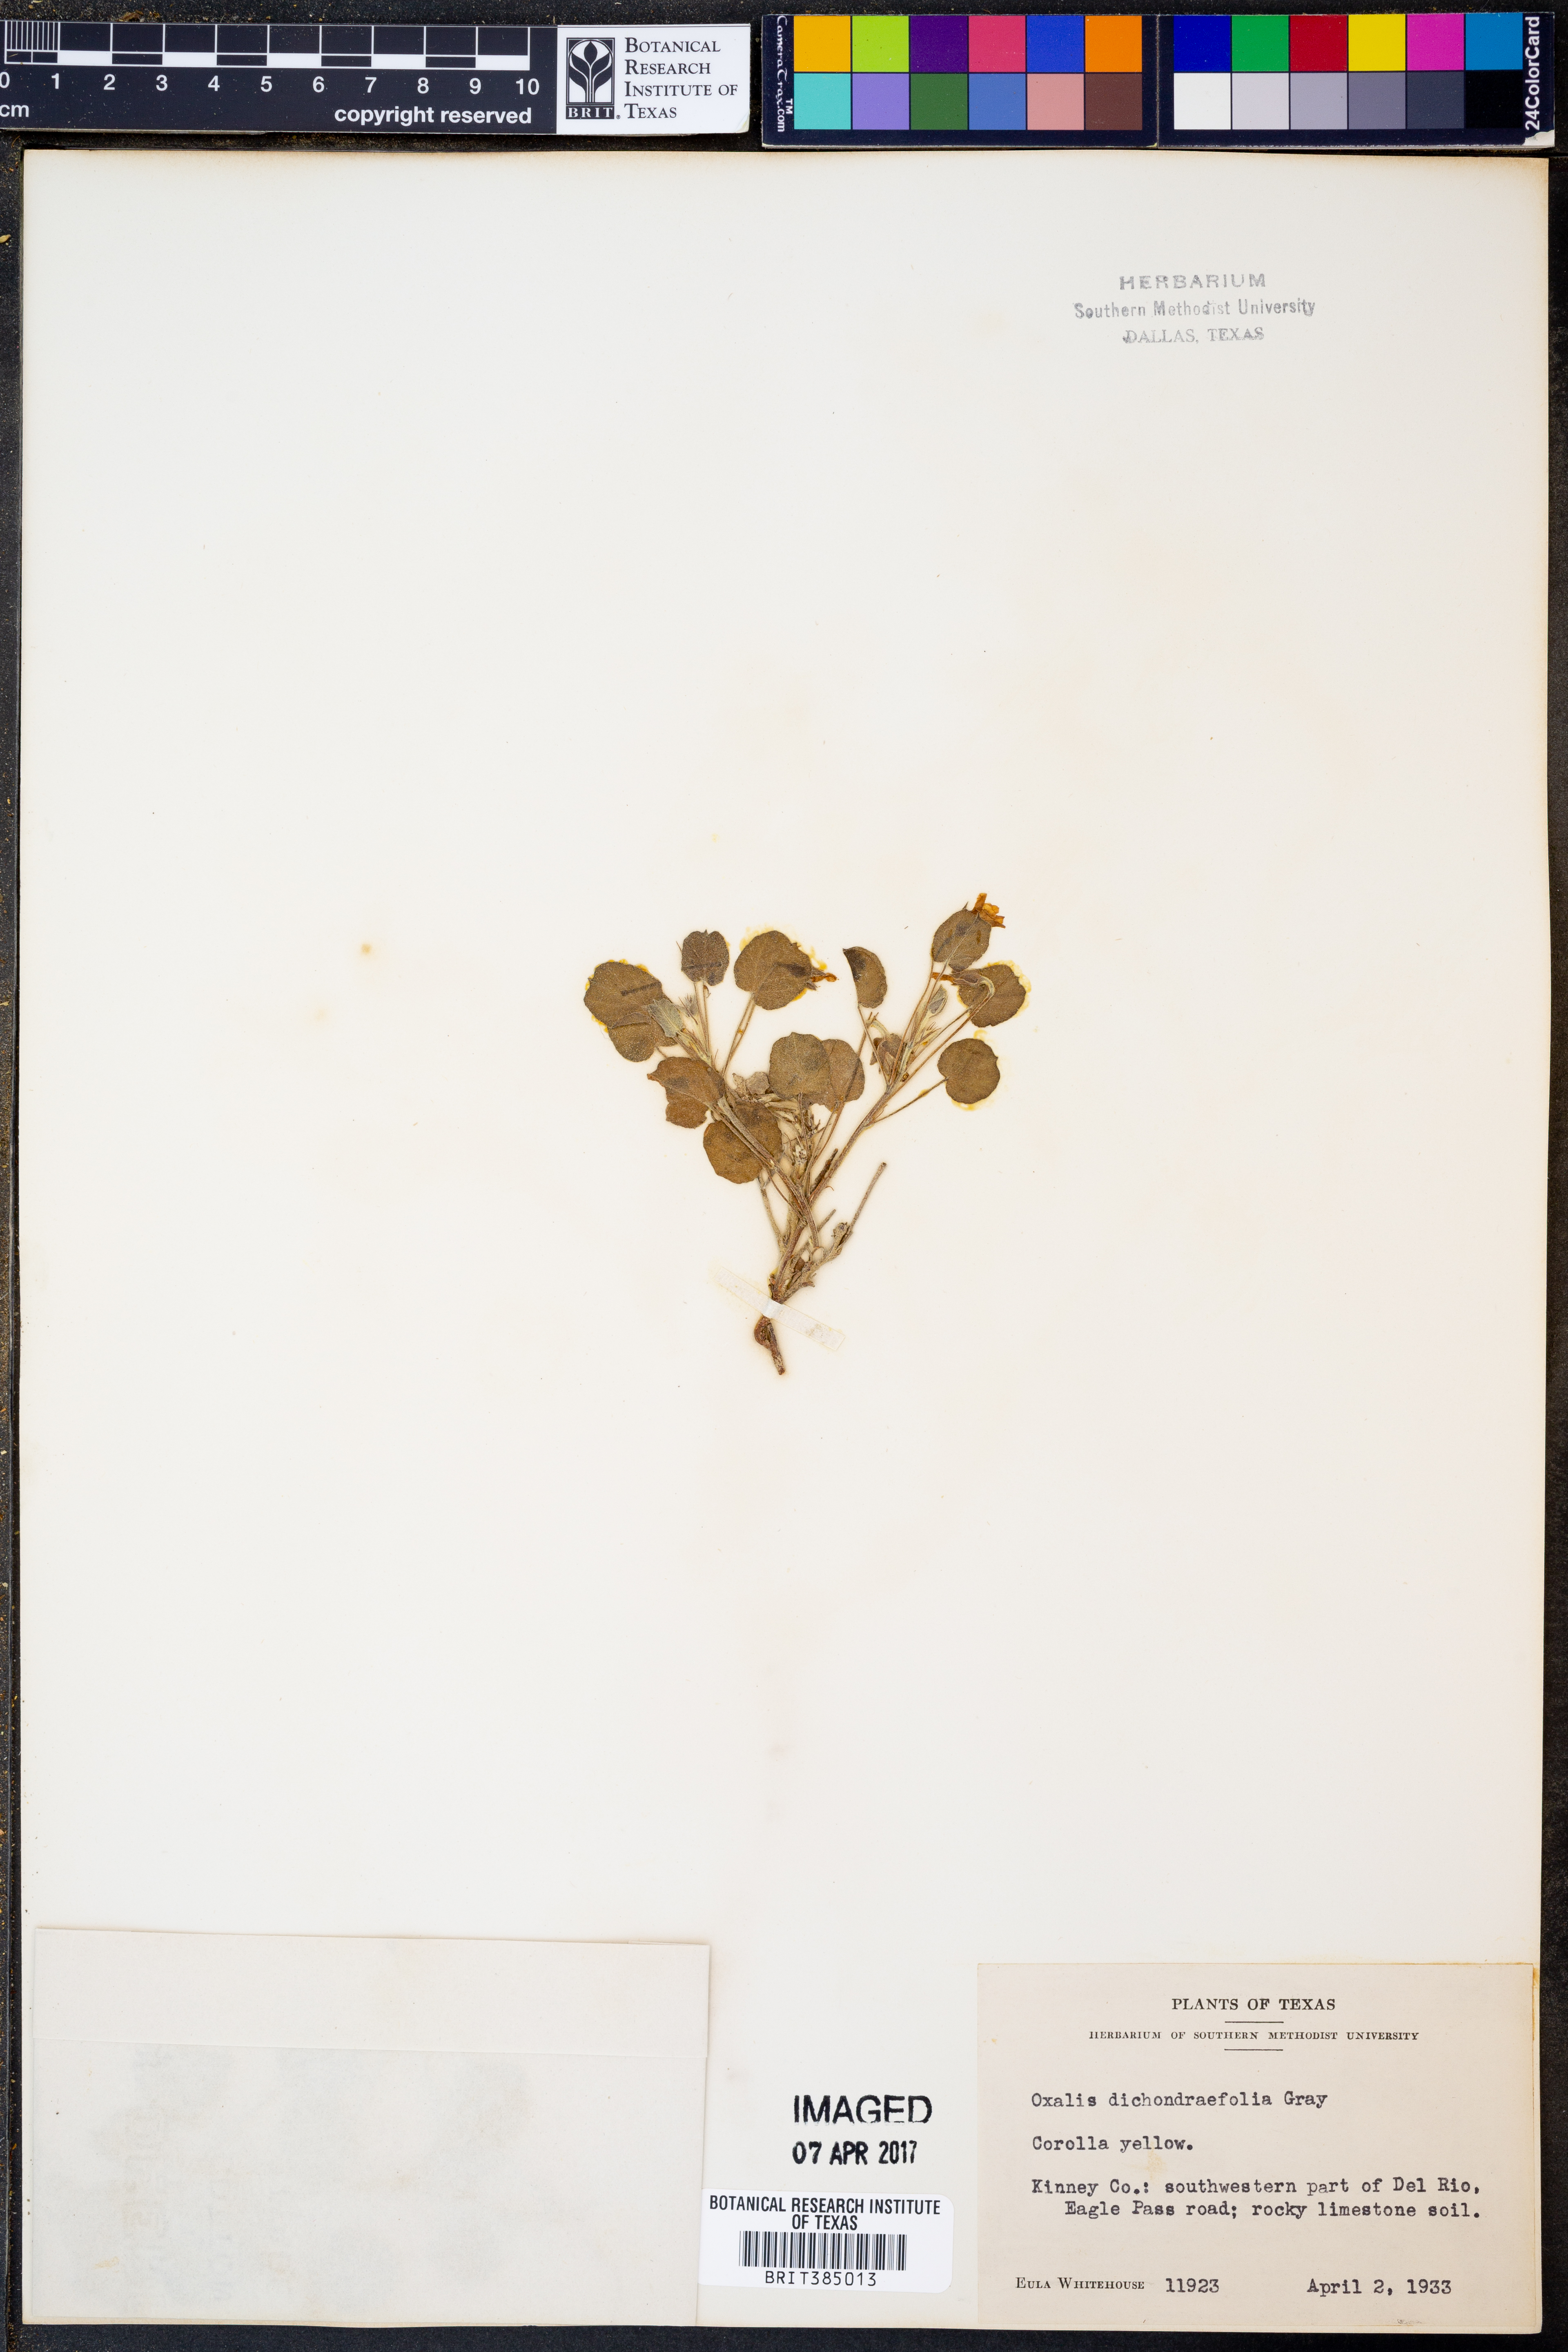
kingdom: Plantae
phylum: Tracheophyta
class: Magnoliopsida
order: Oxalidales
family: Oxalidaceae
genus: Oxalis
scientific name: Oxalis dichondrifolia
